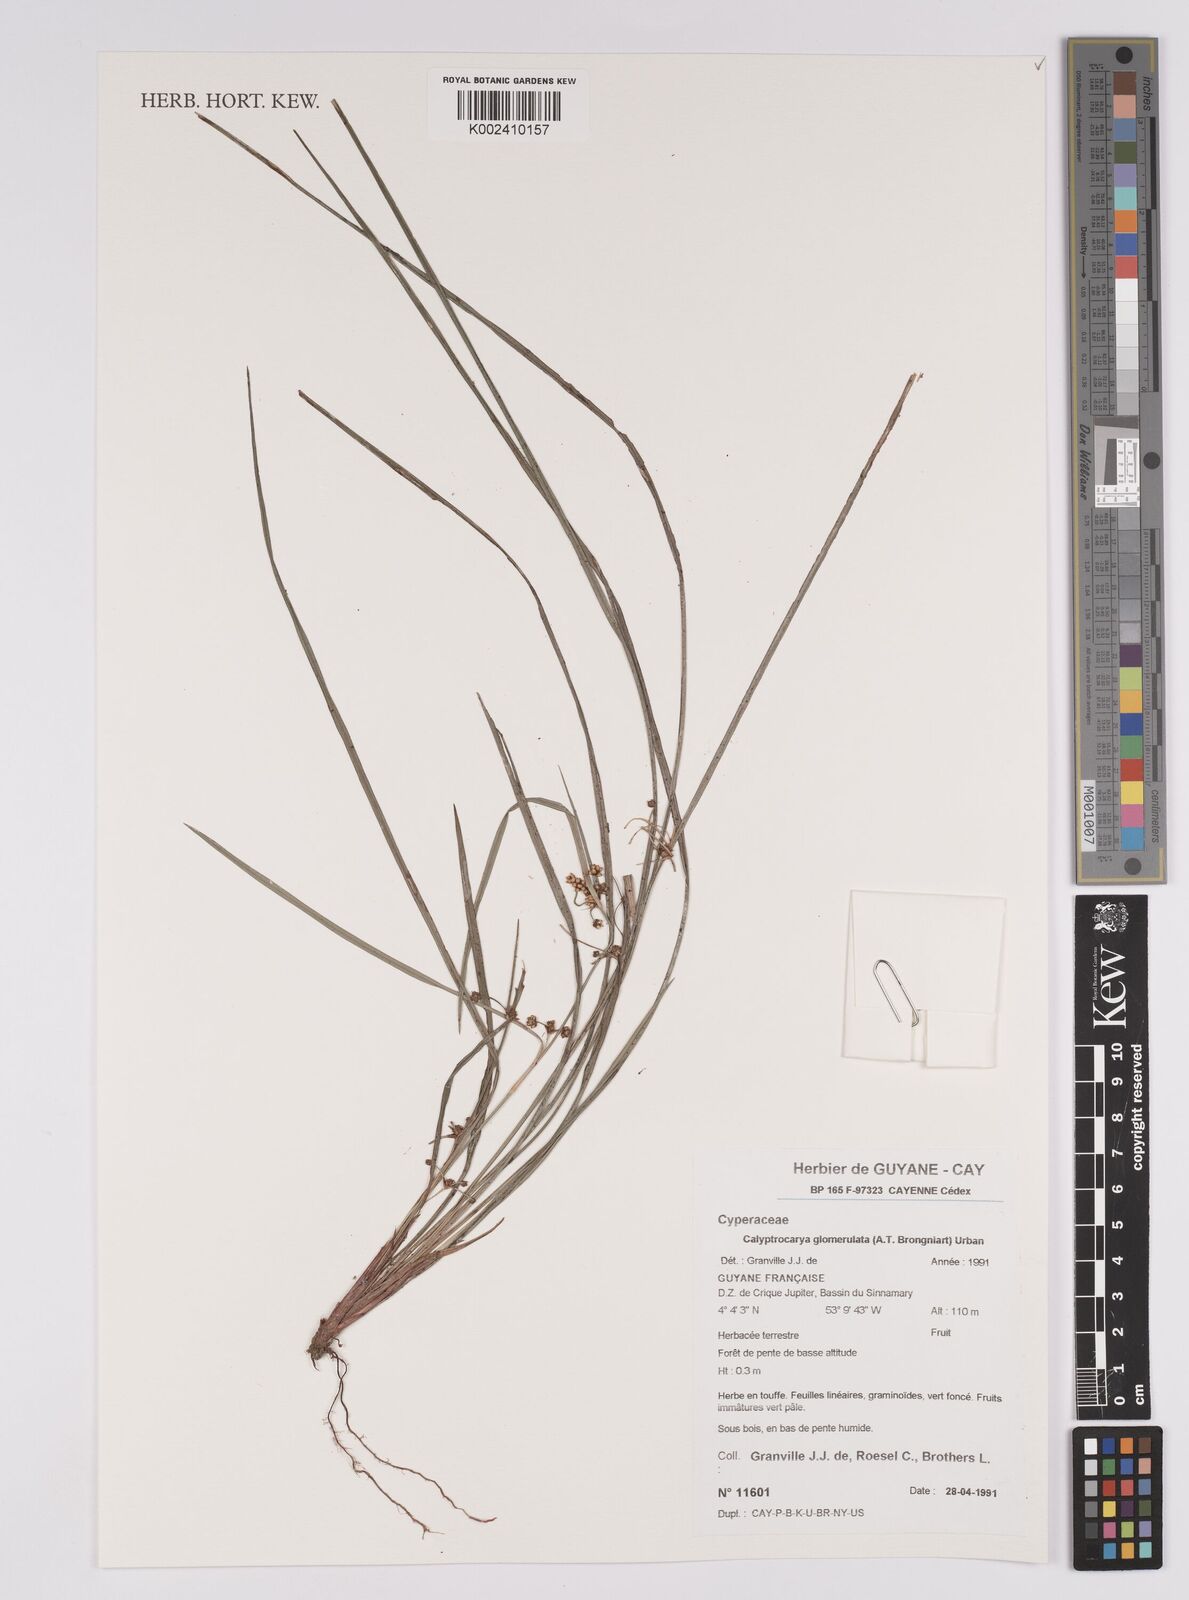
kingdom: Plantae
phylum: Tracheophyta
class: Liliopsida
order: Poales
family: Cyperaceae
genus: Calyptrocarya
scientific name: Calyptrocarya glomerulata
